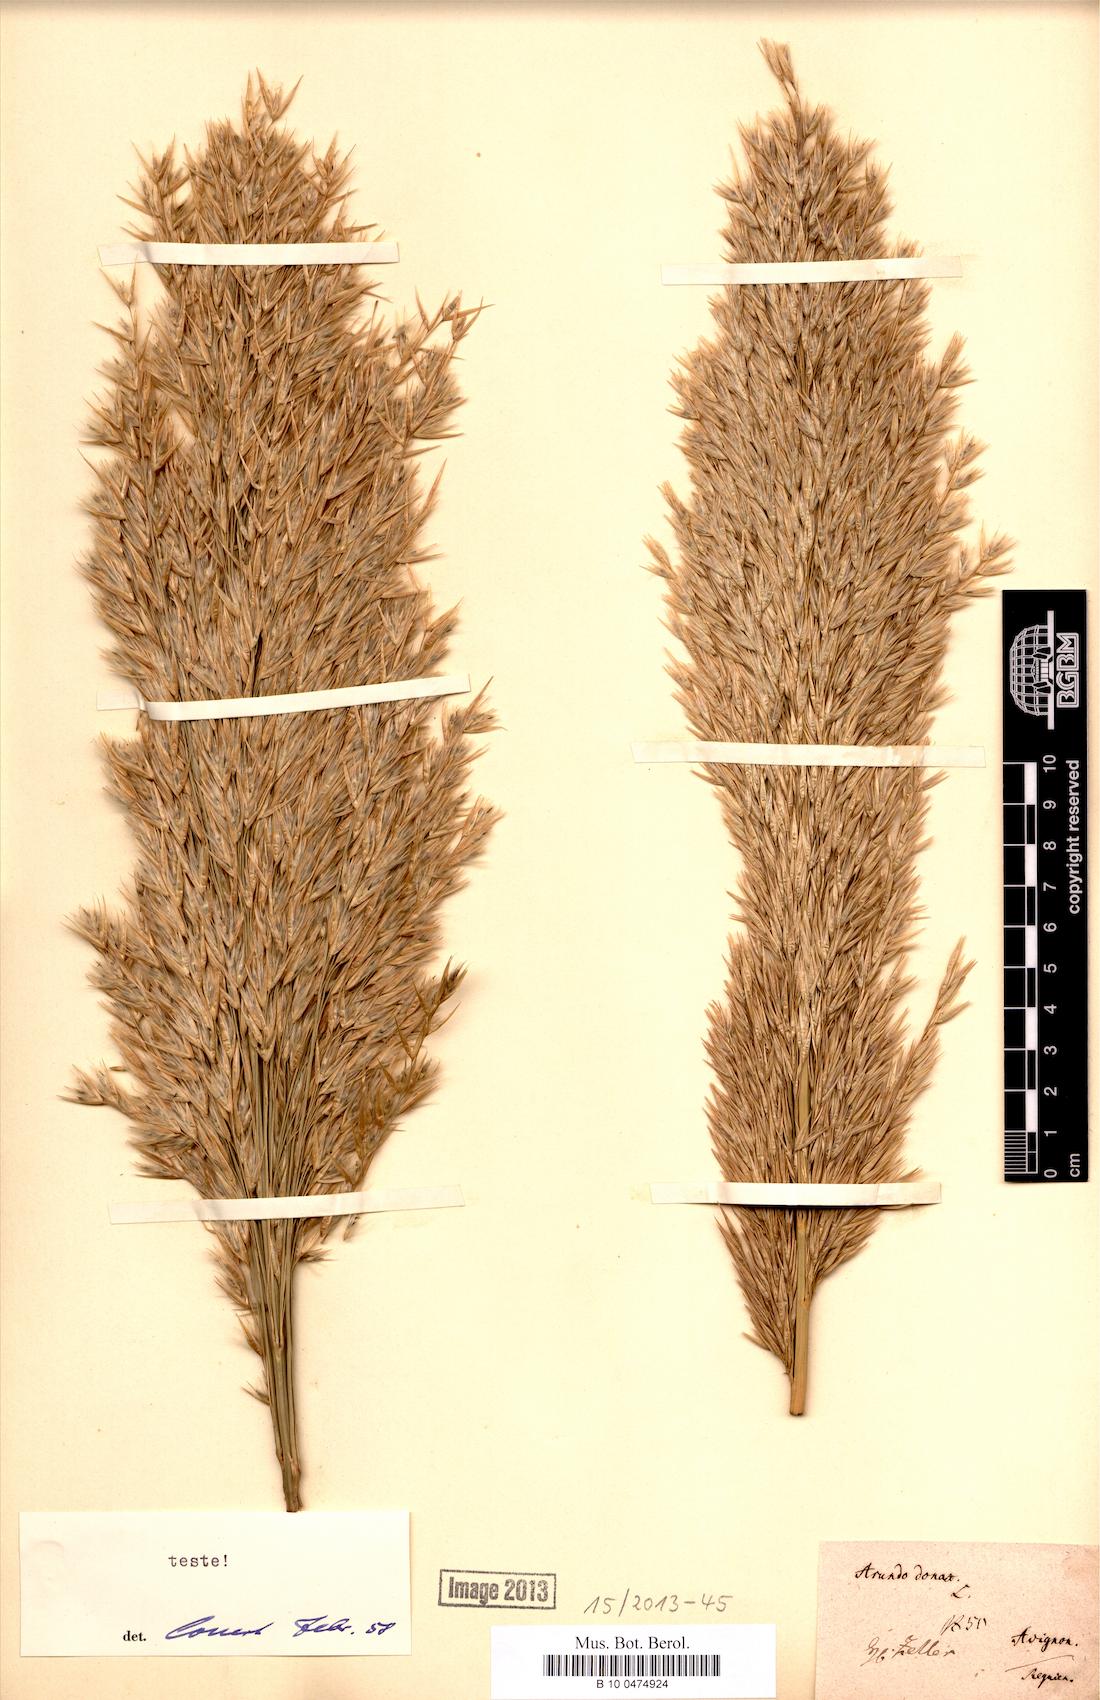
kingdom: Plantae
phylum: Tracheophyta
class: Liliopsida
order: Poales
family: Poaceae
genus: Arundo
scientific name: Arundo donax
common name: Giant reed
